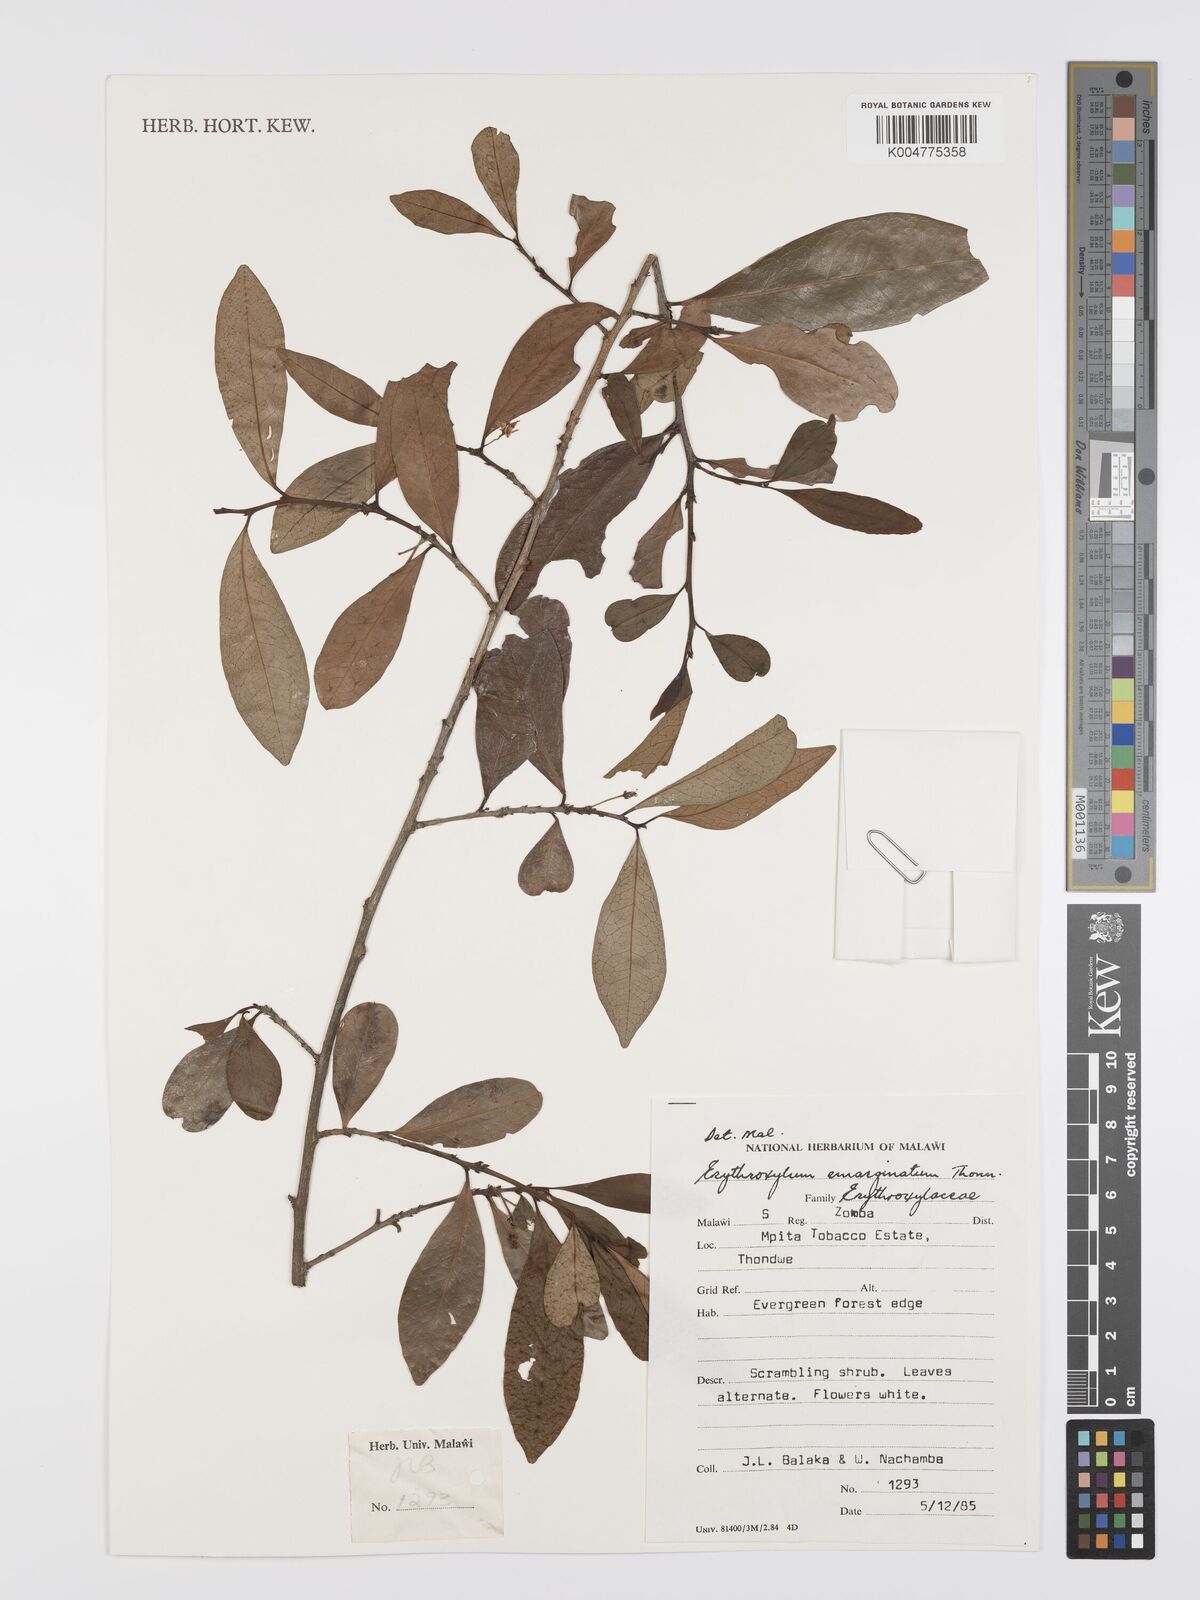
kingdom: Plantae
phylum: Tracheophyta
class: Magnoliopsida
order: Malpighiales
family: Erythroxylaceae
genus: Erythroxylum
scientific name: Erythroxylum emarginatum
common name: African coca-tree
